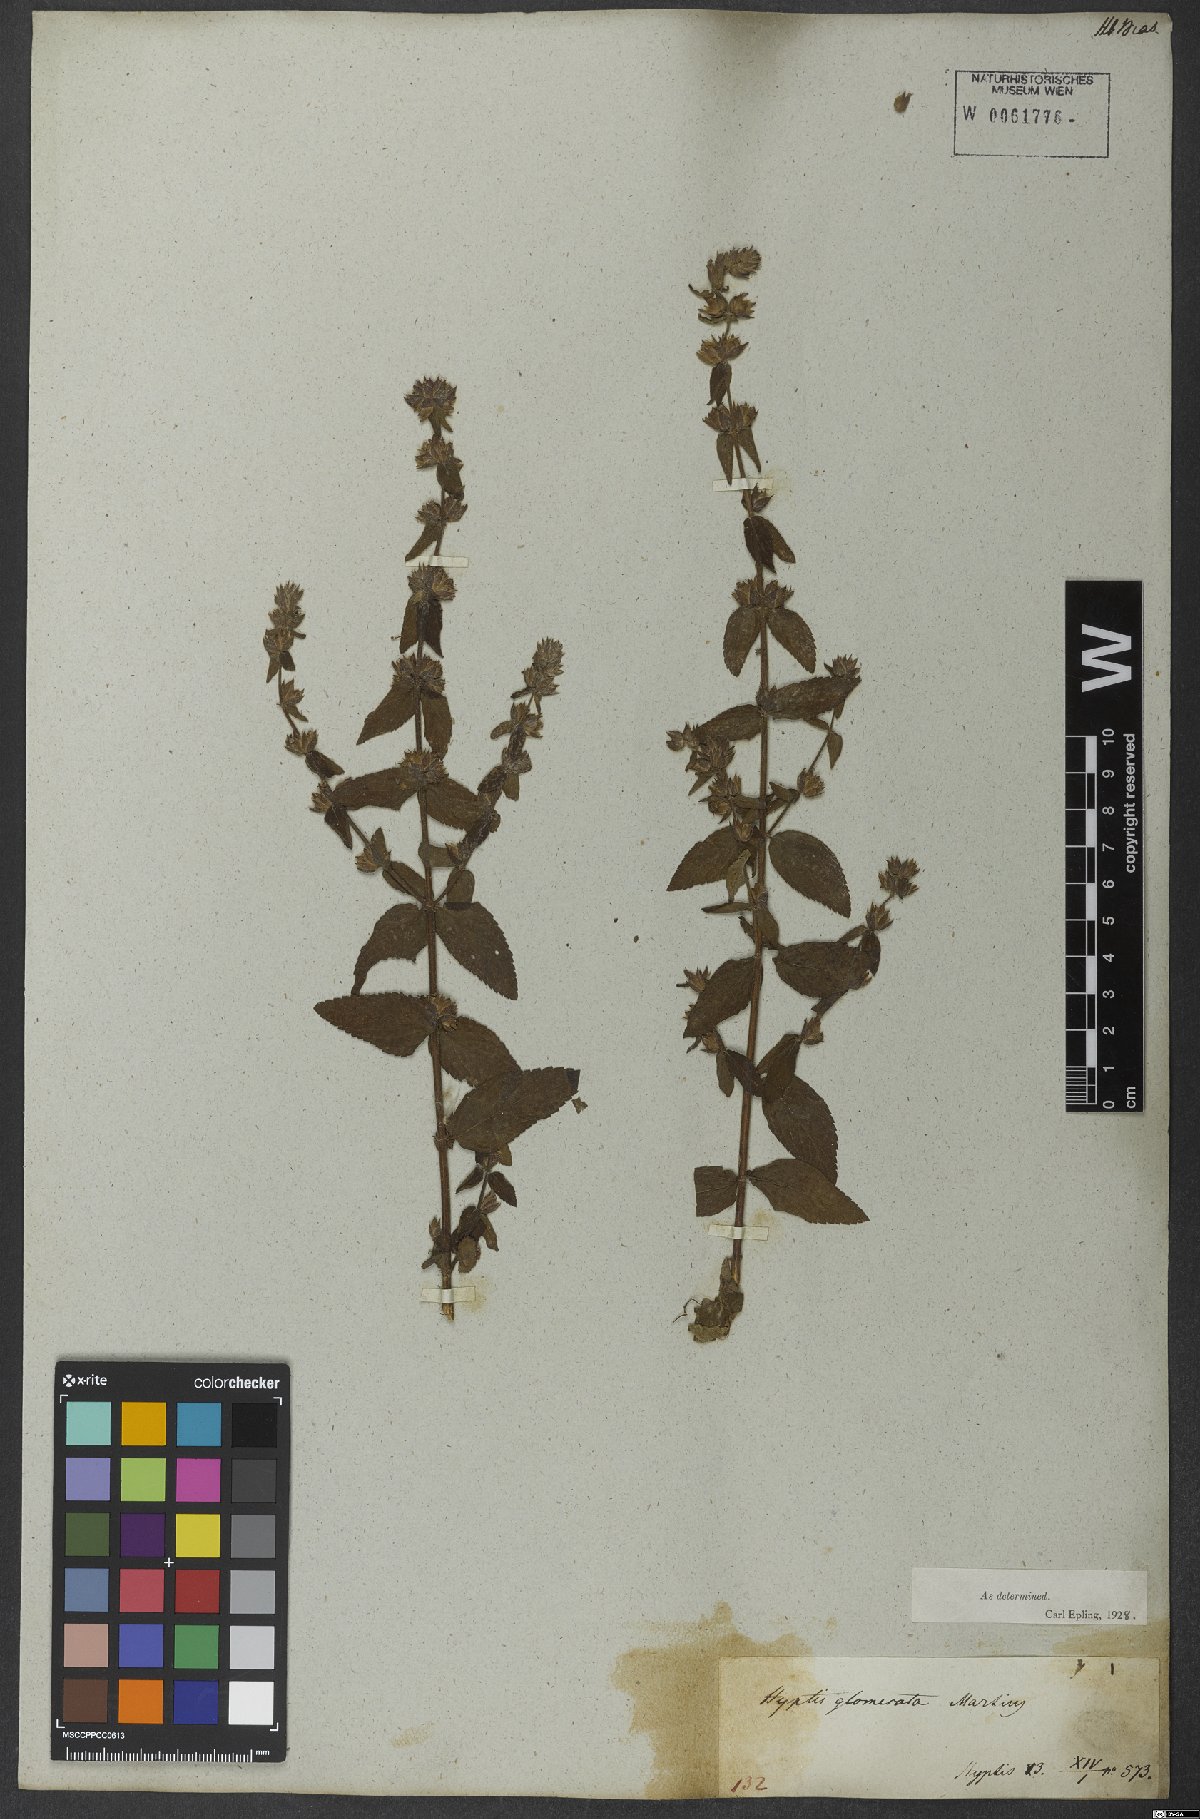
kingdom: Plantae
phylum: Tracheophyta
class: Magnoliopsida
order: Lamiales
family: Lamiaceae
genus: Oocephalus
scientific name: Oocephalus oppositiflorus
